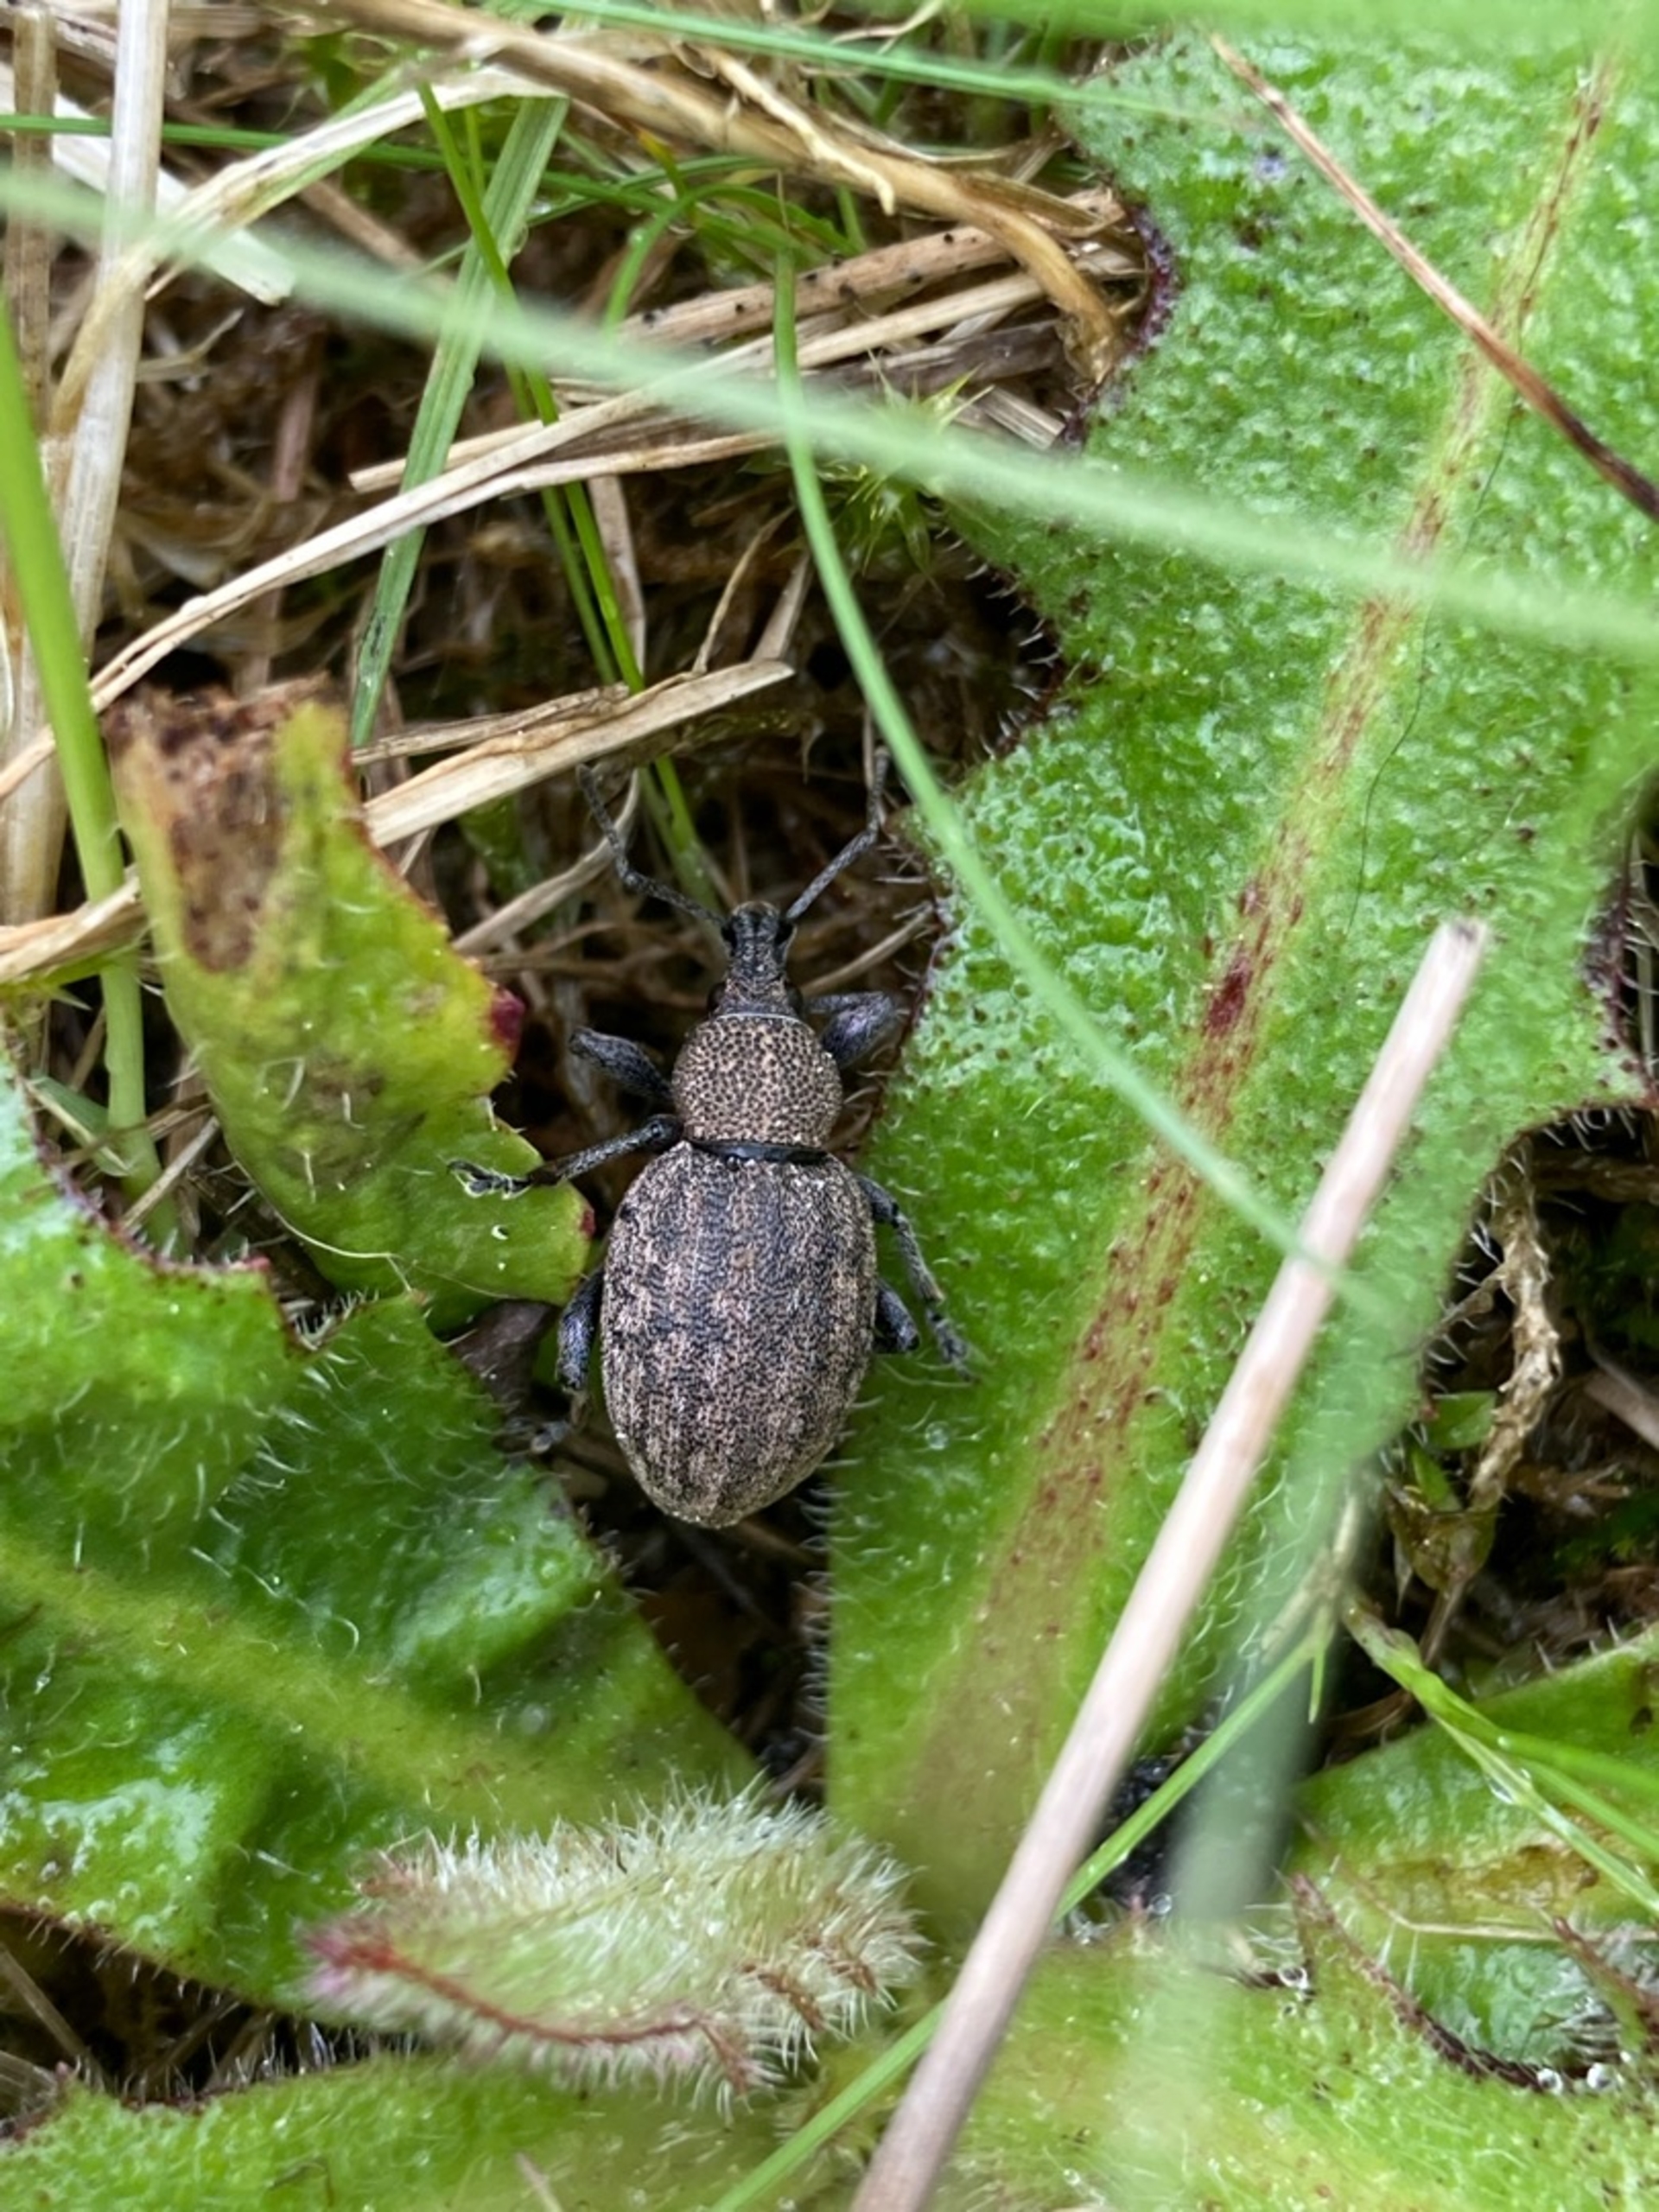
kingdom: Animalia
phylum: Arthropoda
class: Insecta
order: Coleoptera
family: Curculionidae
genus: Otiorhynchus
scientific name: Otiorhynchus ligustici
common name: Lucerneøresnudebille
